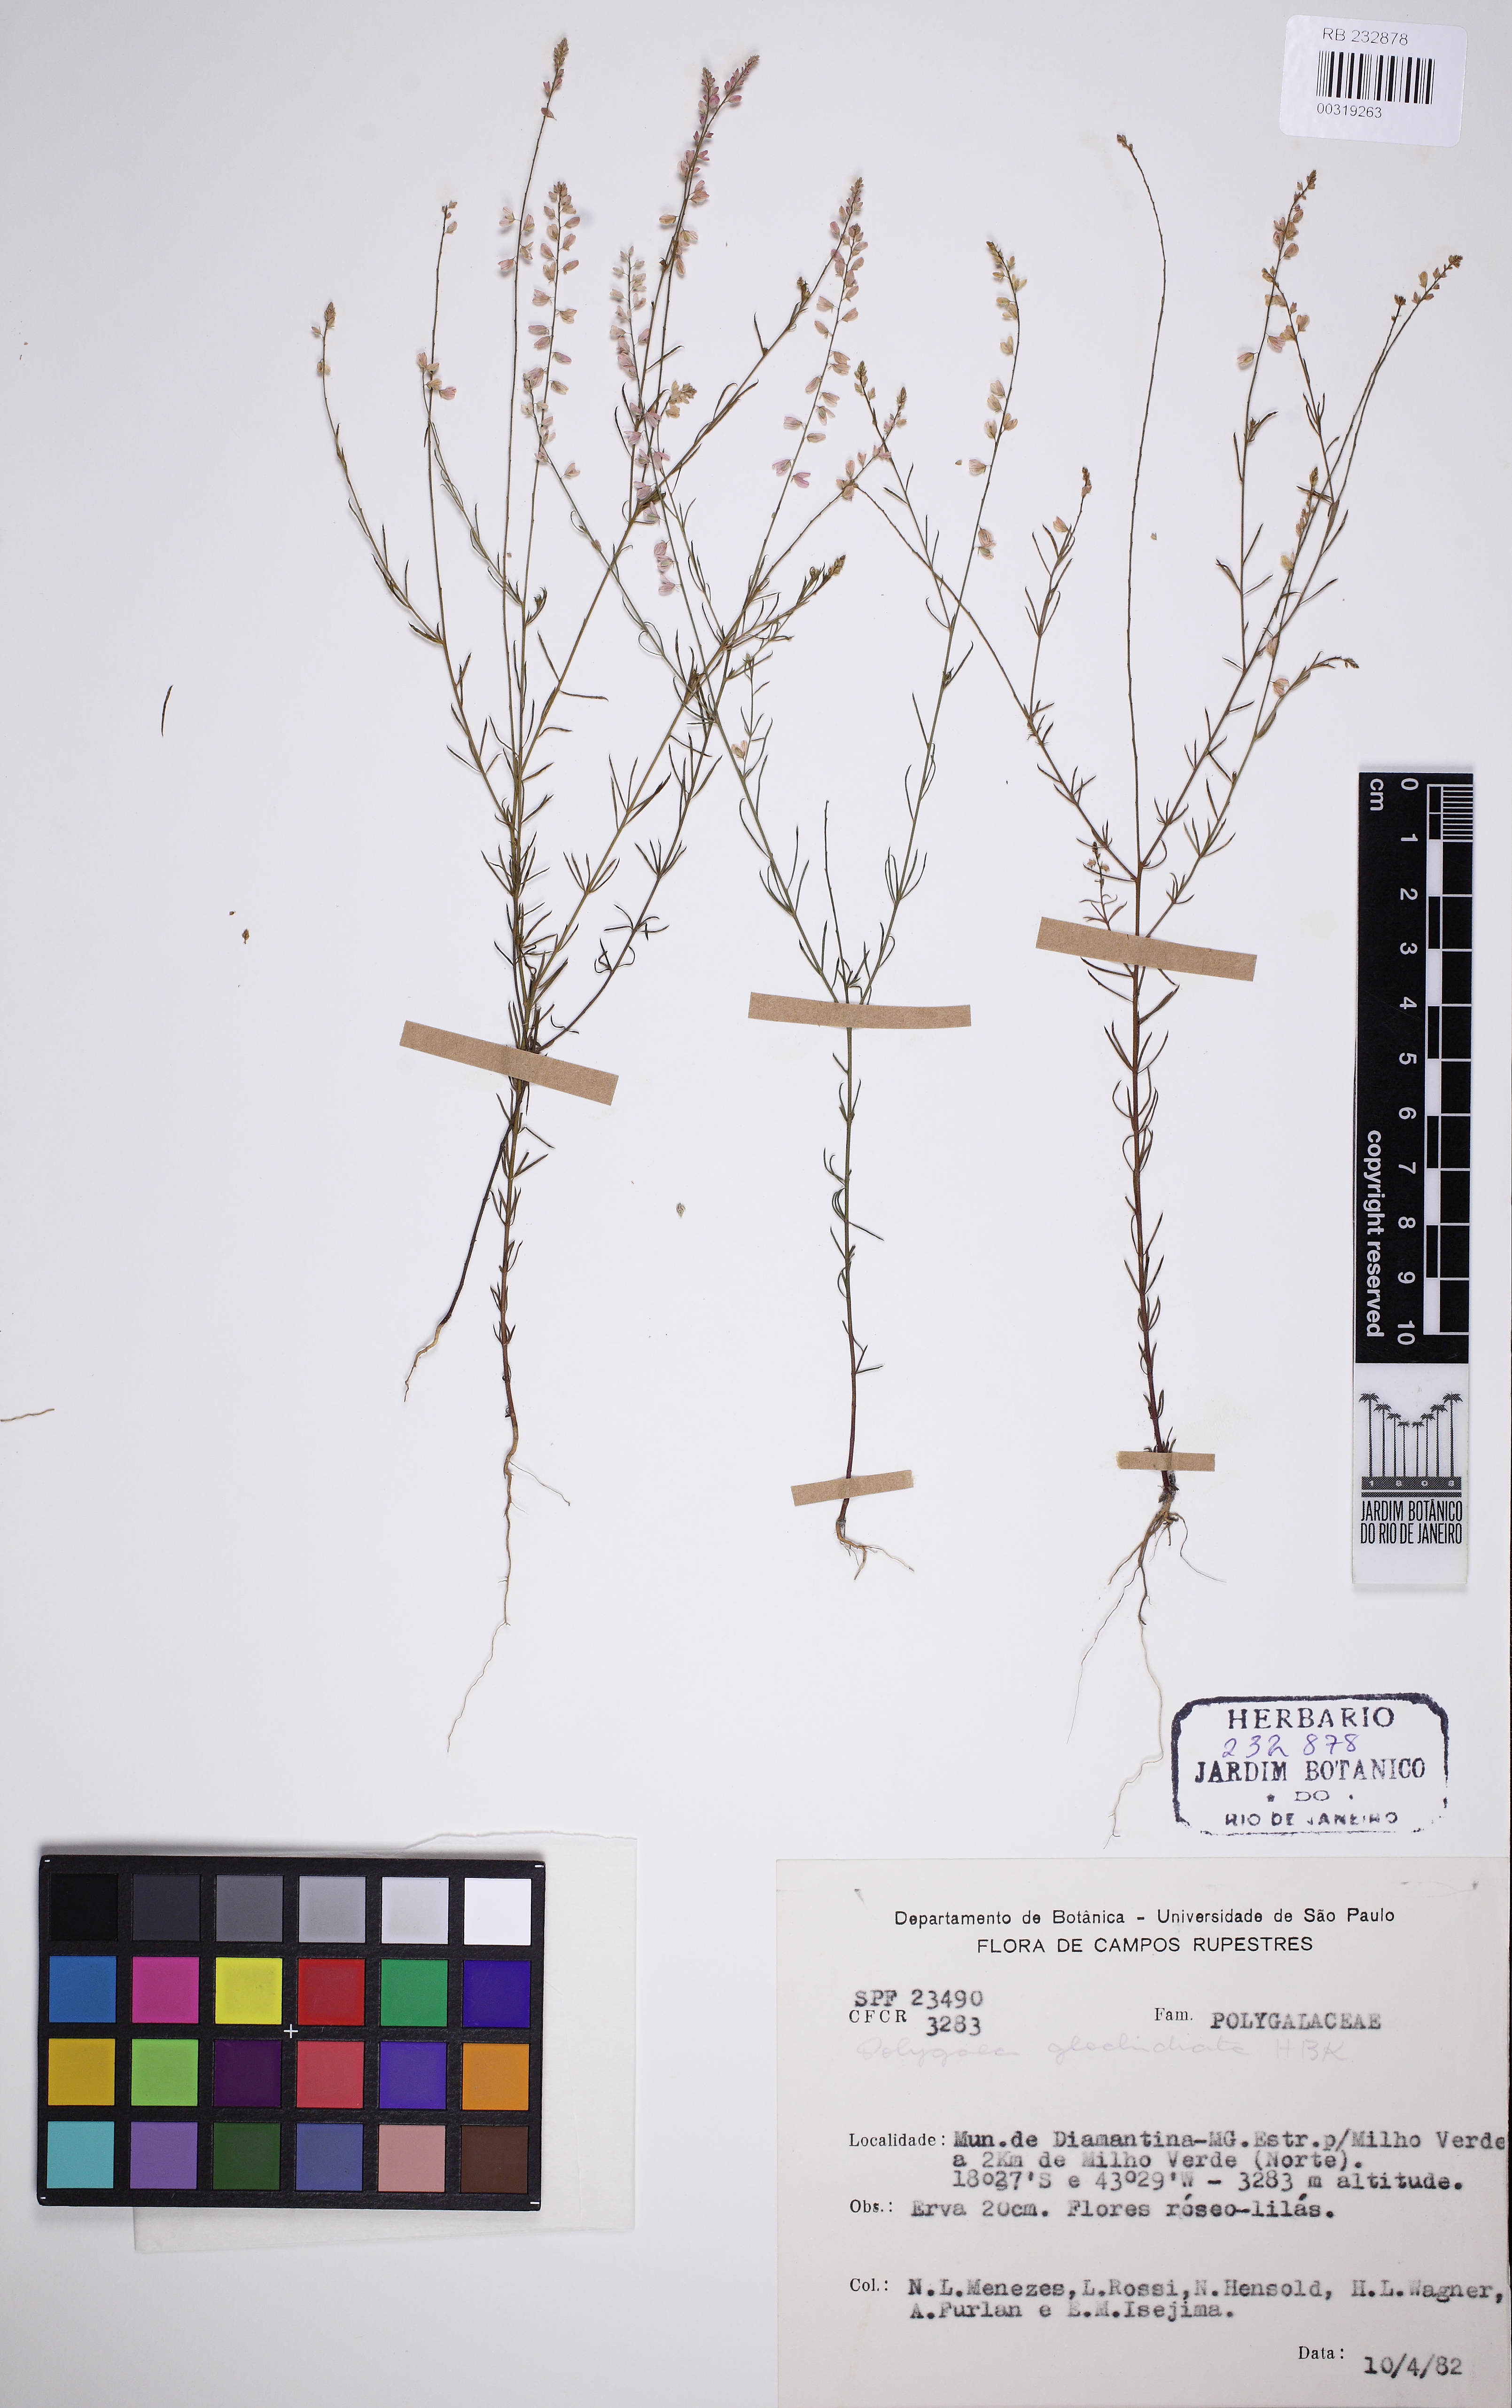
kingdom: Plantae
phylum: Tracheophyta
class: Magnoliopsida
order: Fabales
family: Polygalaceae
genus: Polygala
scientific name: Polygala glochidiata
